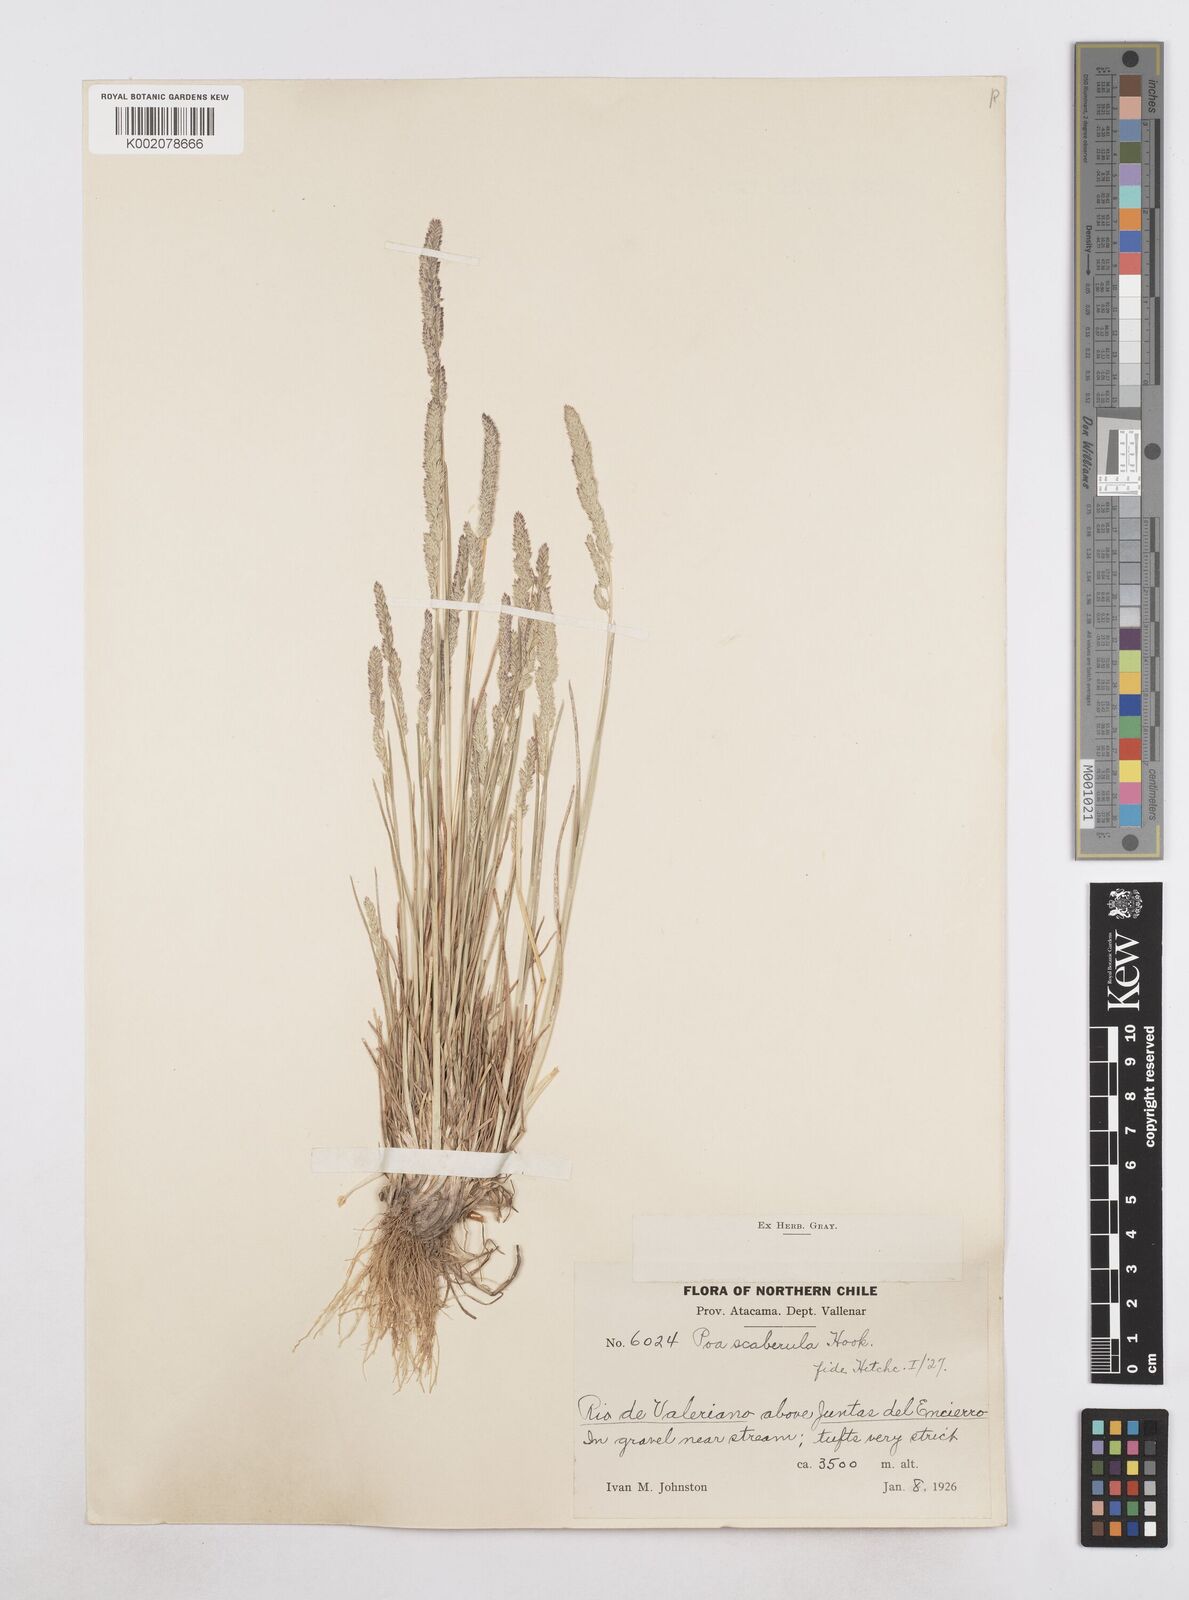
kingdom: Plantae
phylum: Tracheophyta
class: Liliopsida
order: Poales
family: Poaceae
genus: Poa
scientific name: Poa scaberula
